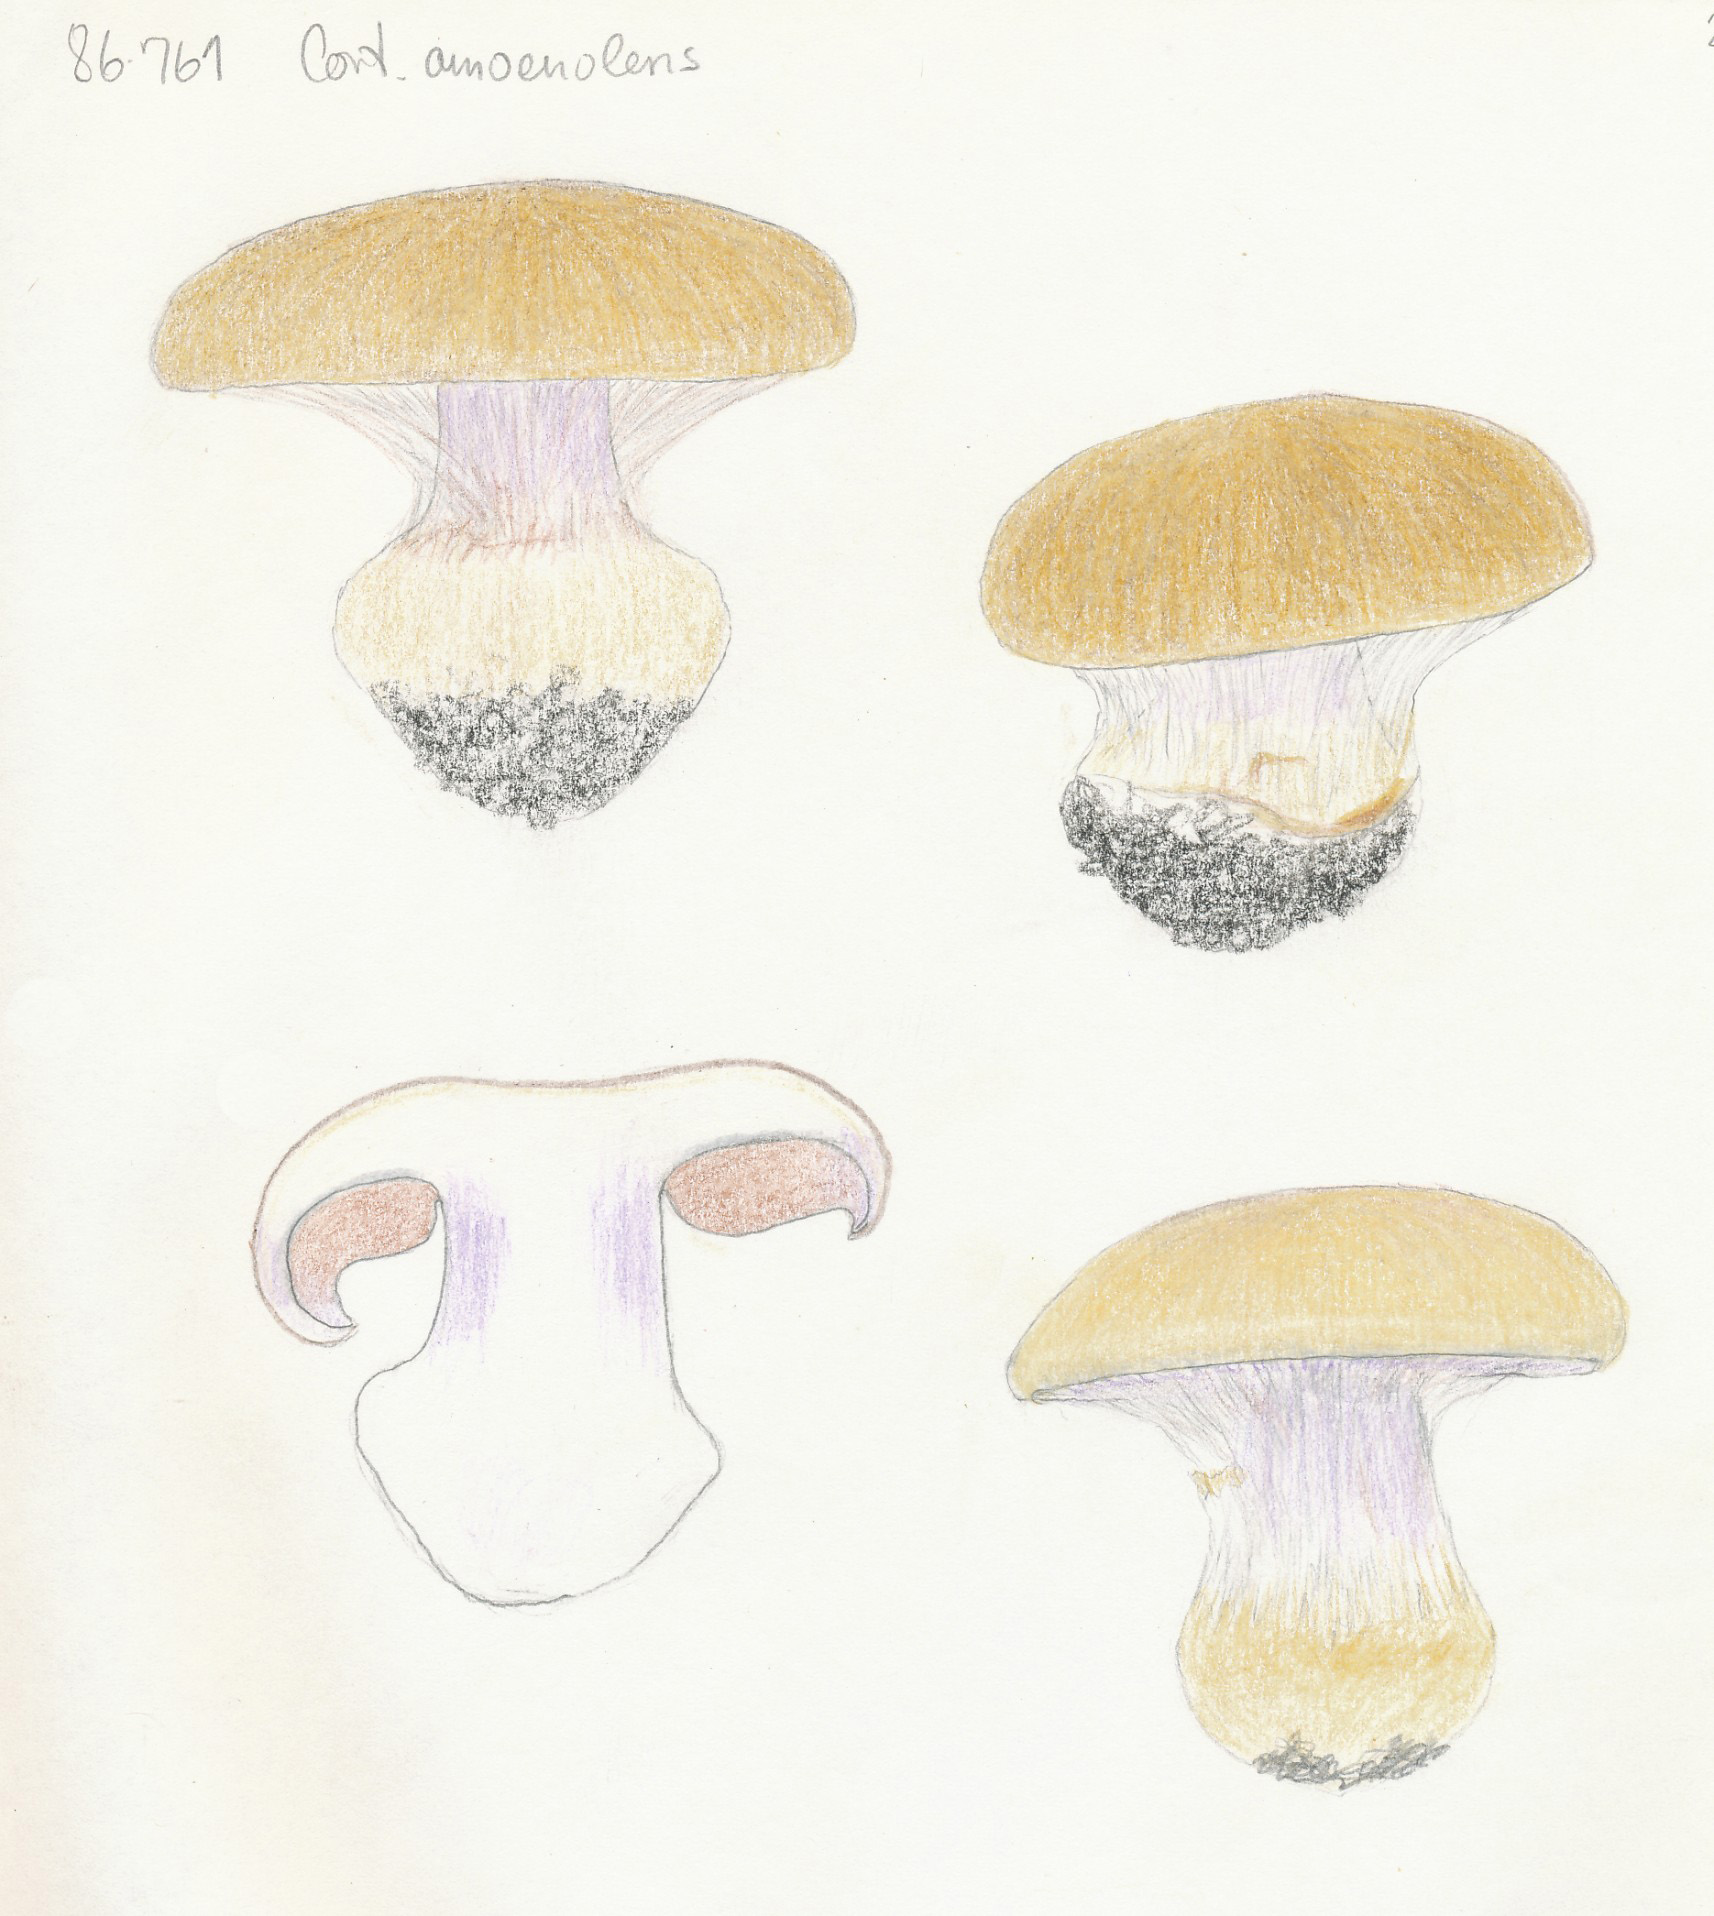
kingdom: Fungi
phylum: Basidiomycota
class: Agaricomycetes
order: Agaricales
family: Cortinariaceae
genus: Cortinarius
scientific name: Cortinarius anserinus
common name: bøge-slørhat
